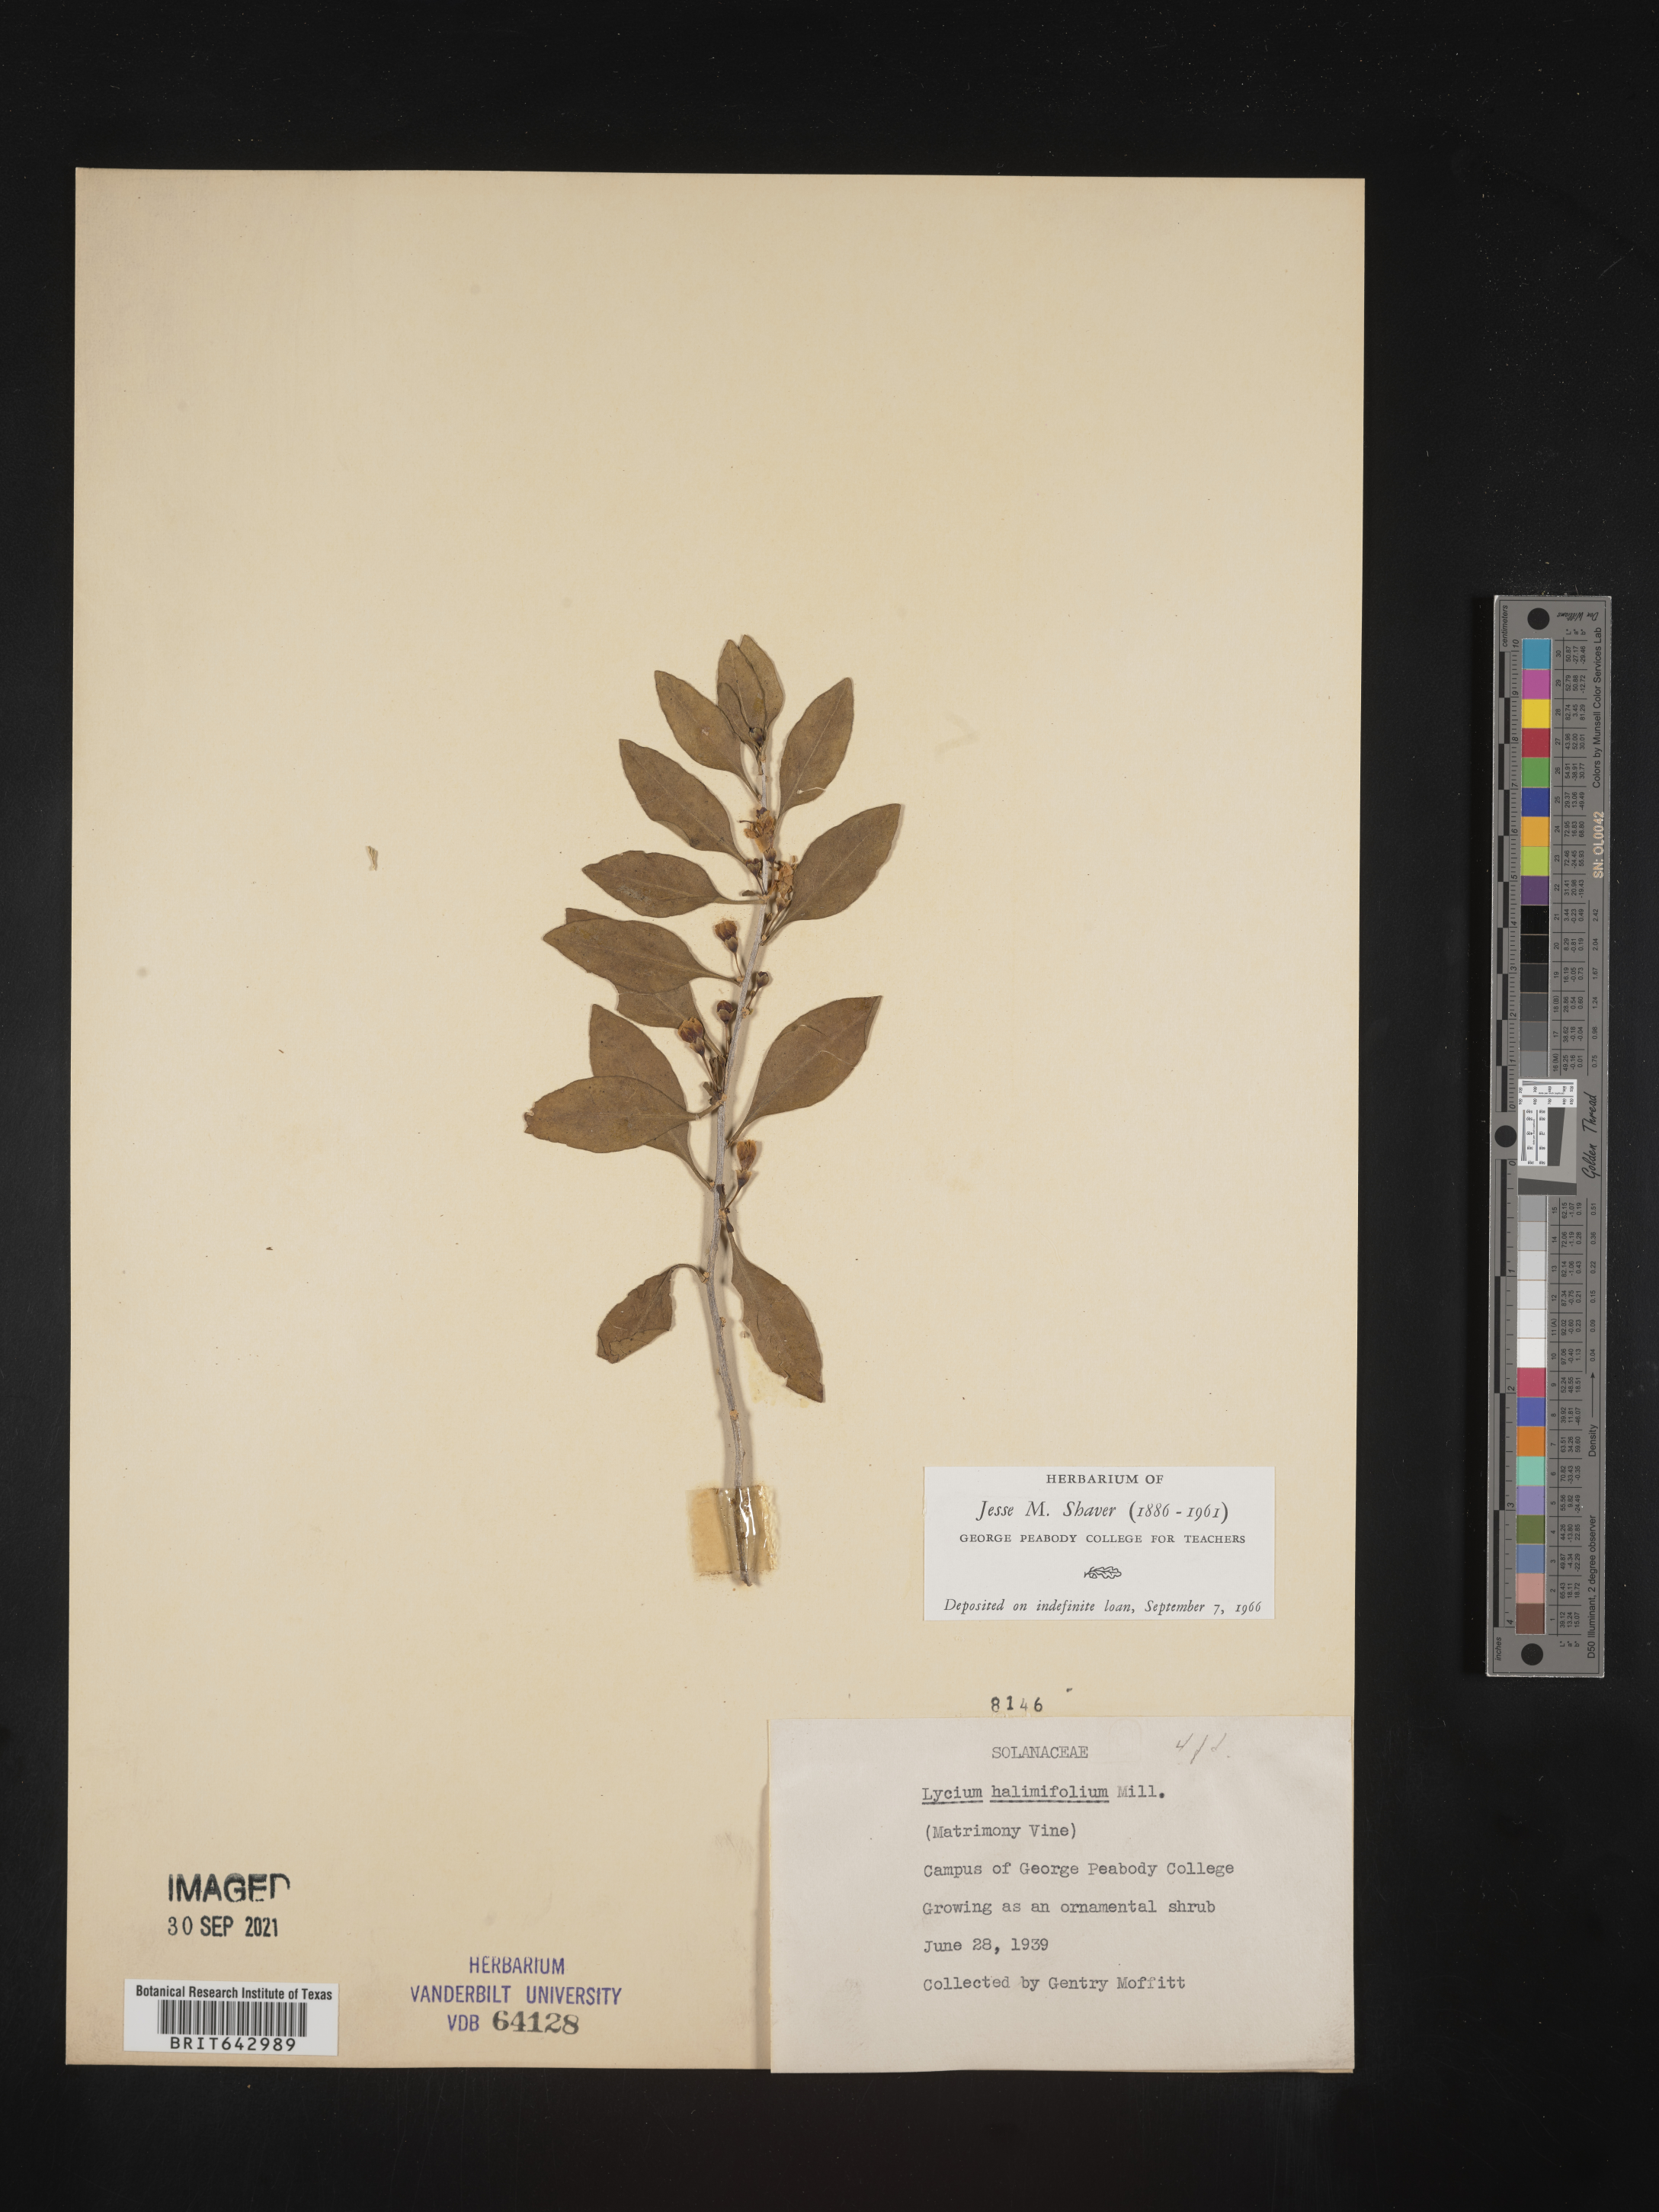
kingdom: Plantae
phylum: Tracheophyta
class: Magnoliopsida
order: Solanales
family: Solanaceae
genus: Lycium
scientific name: Lycium
